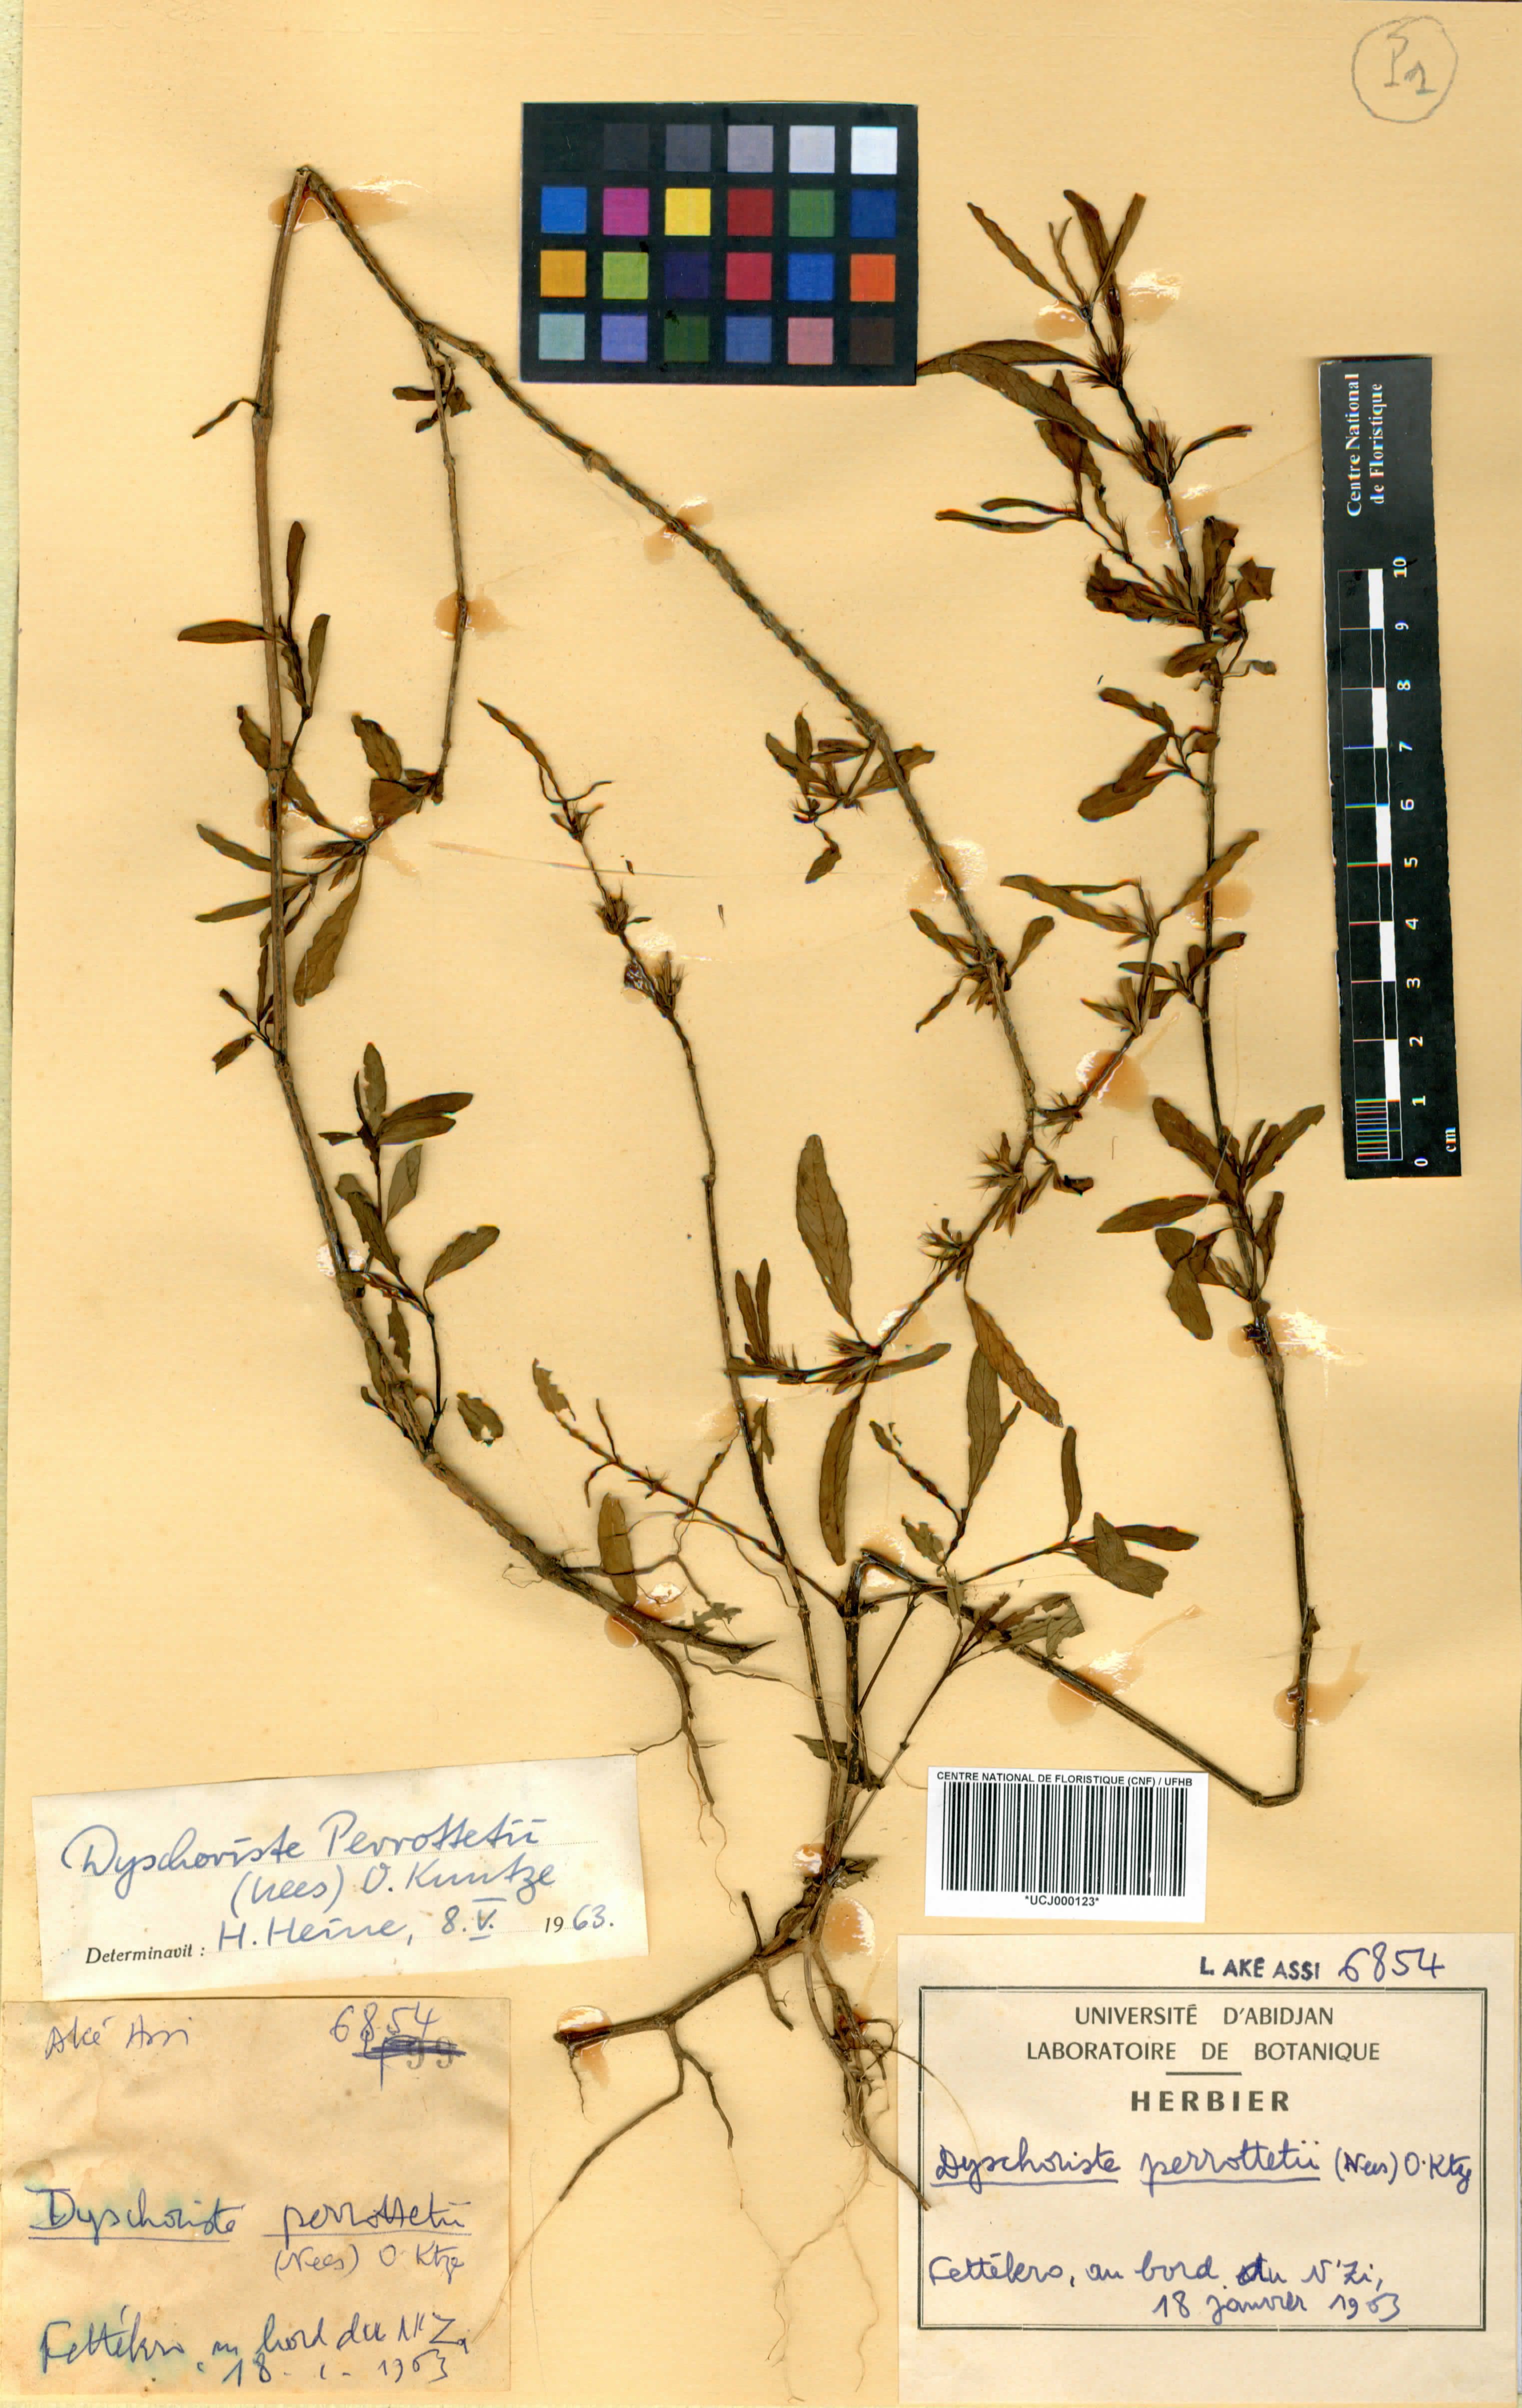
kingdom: Plantae
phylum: Tracheophyta
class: Magnoliopsida
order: Lamiales
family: Acanthaceae
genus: Dyschoriste
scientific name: Dyschoriste nagchana
